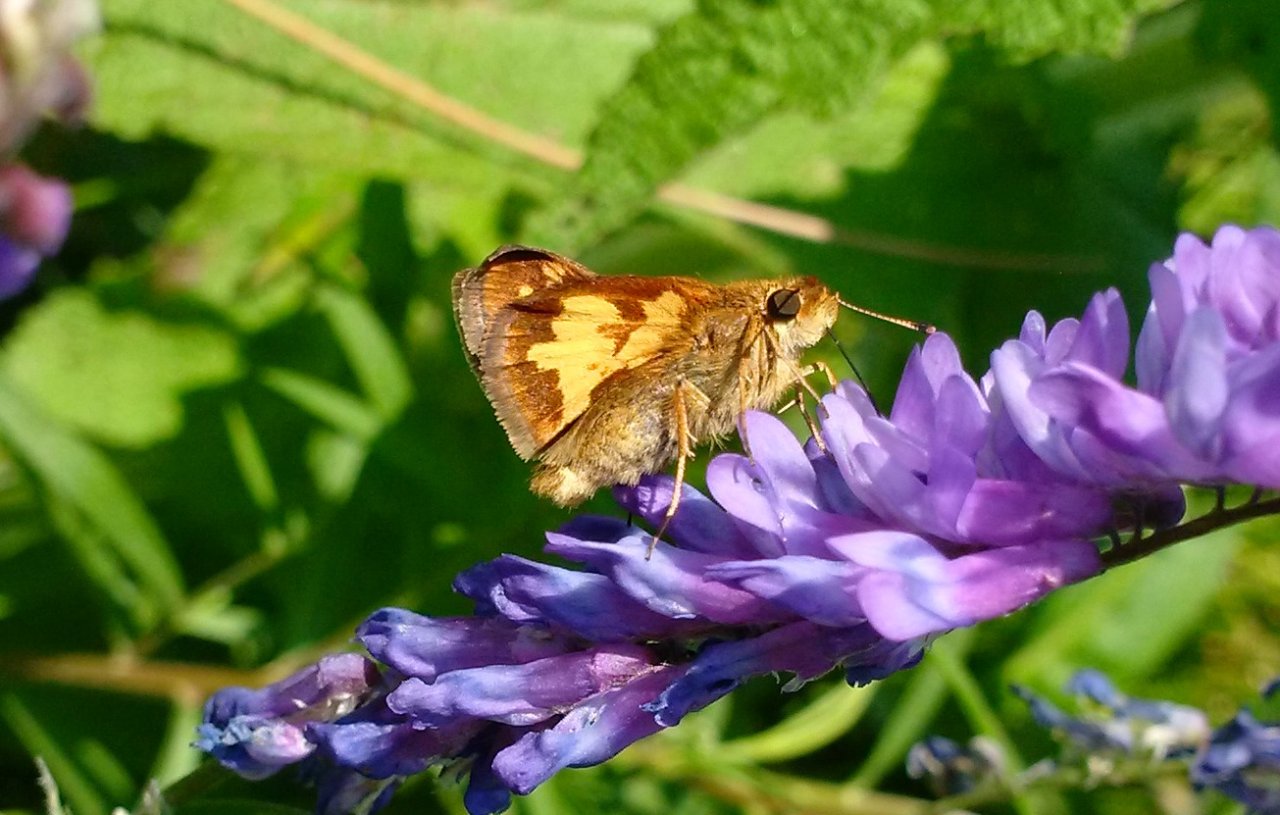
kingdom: Animalia
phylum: Arthropoda
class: Insecta
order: Lepidoptera
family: Hesperiidae
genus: Polites
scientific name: Polites coras
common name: Peck's Skipper
